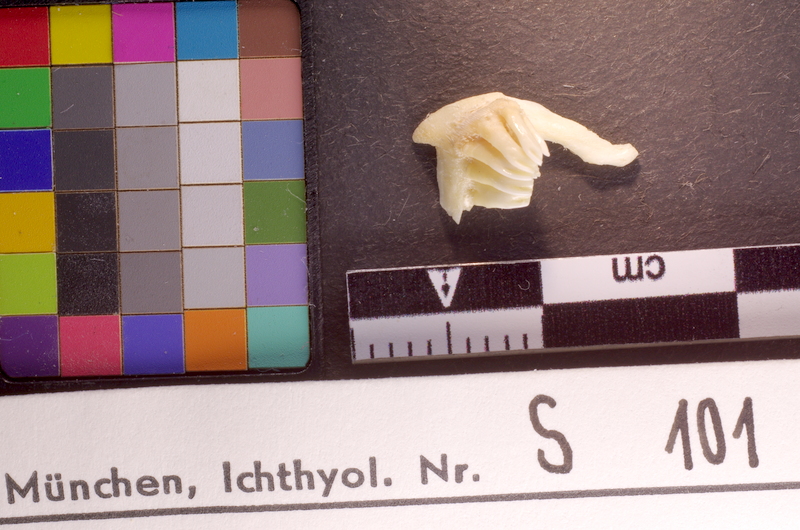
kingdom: Animalia
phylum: Chordata
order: Cypriniformes
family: Cyprinidae
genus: Osteochilus
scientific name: Osteochilus vittatus
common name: Silver sharkminnow
